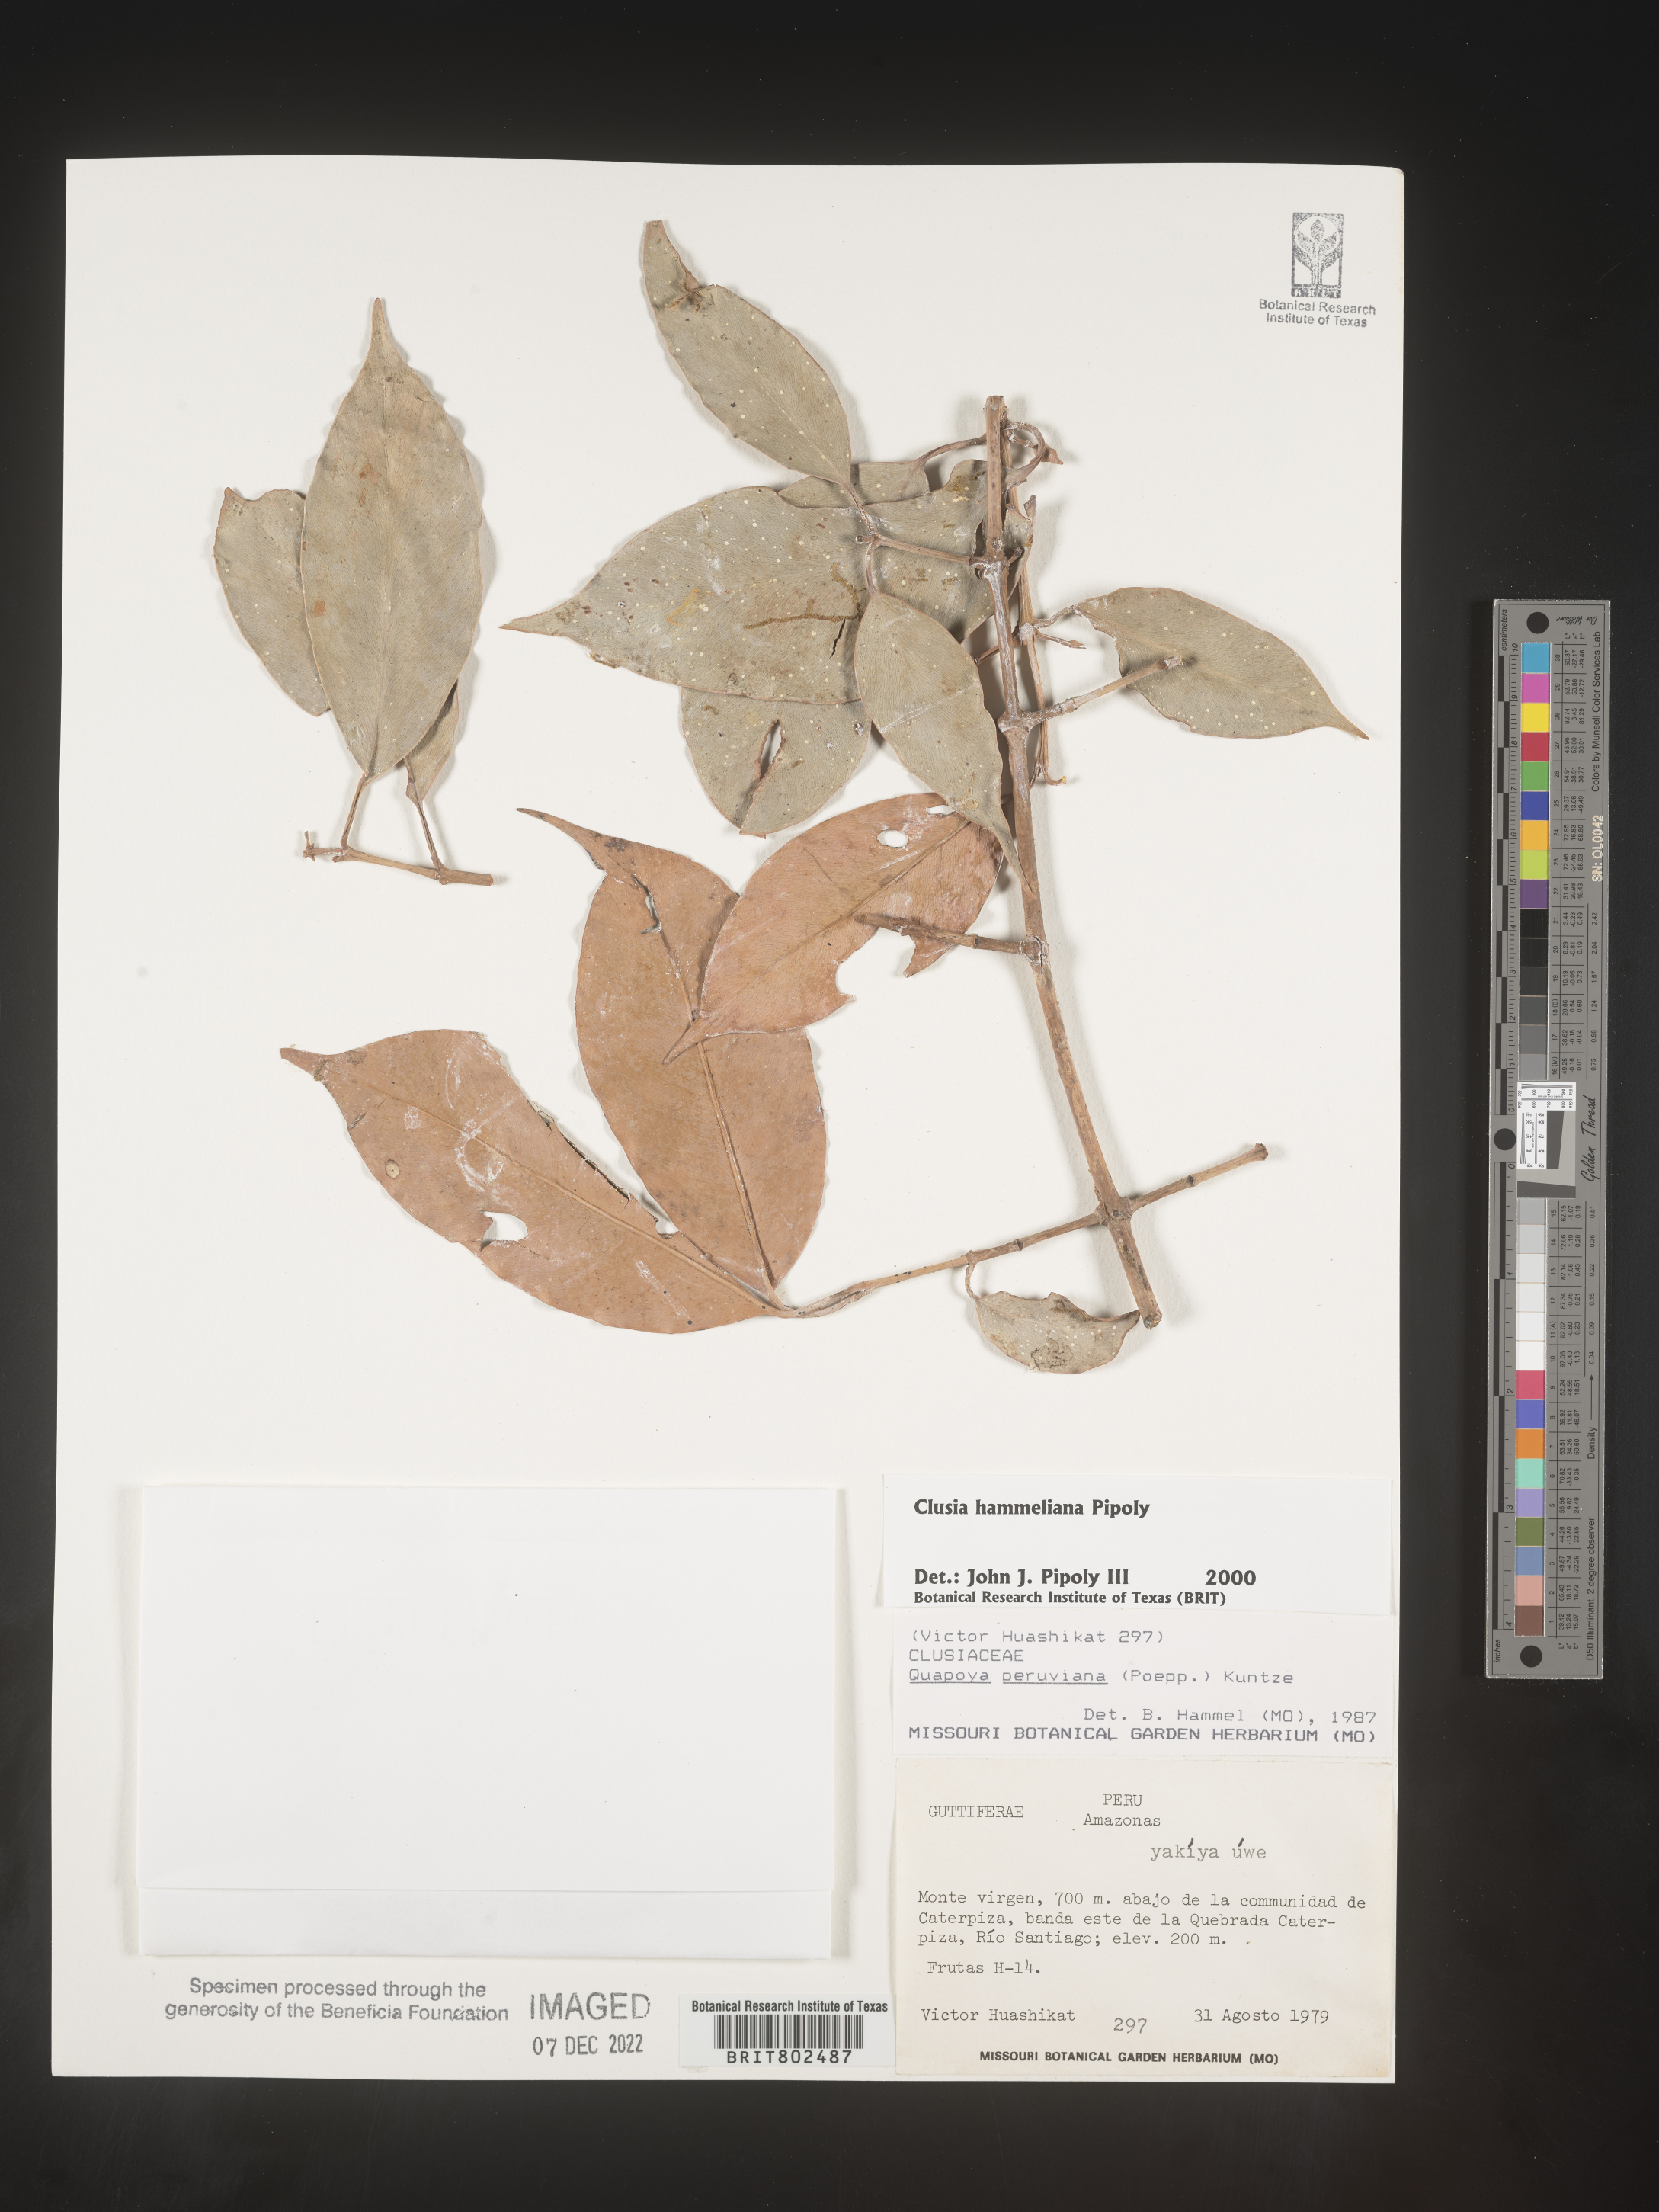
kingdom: Plantae
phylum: Tracheophyta
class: Magnoliopsida
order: Malpighiales
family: Clusiaceae
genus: Clusia
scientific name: Clusia hammeliana
